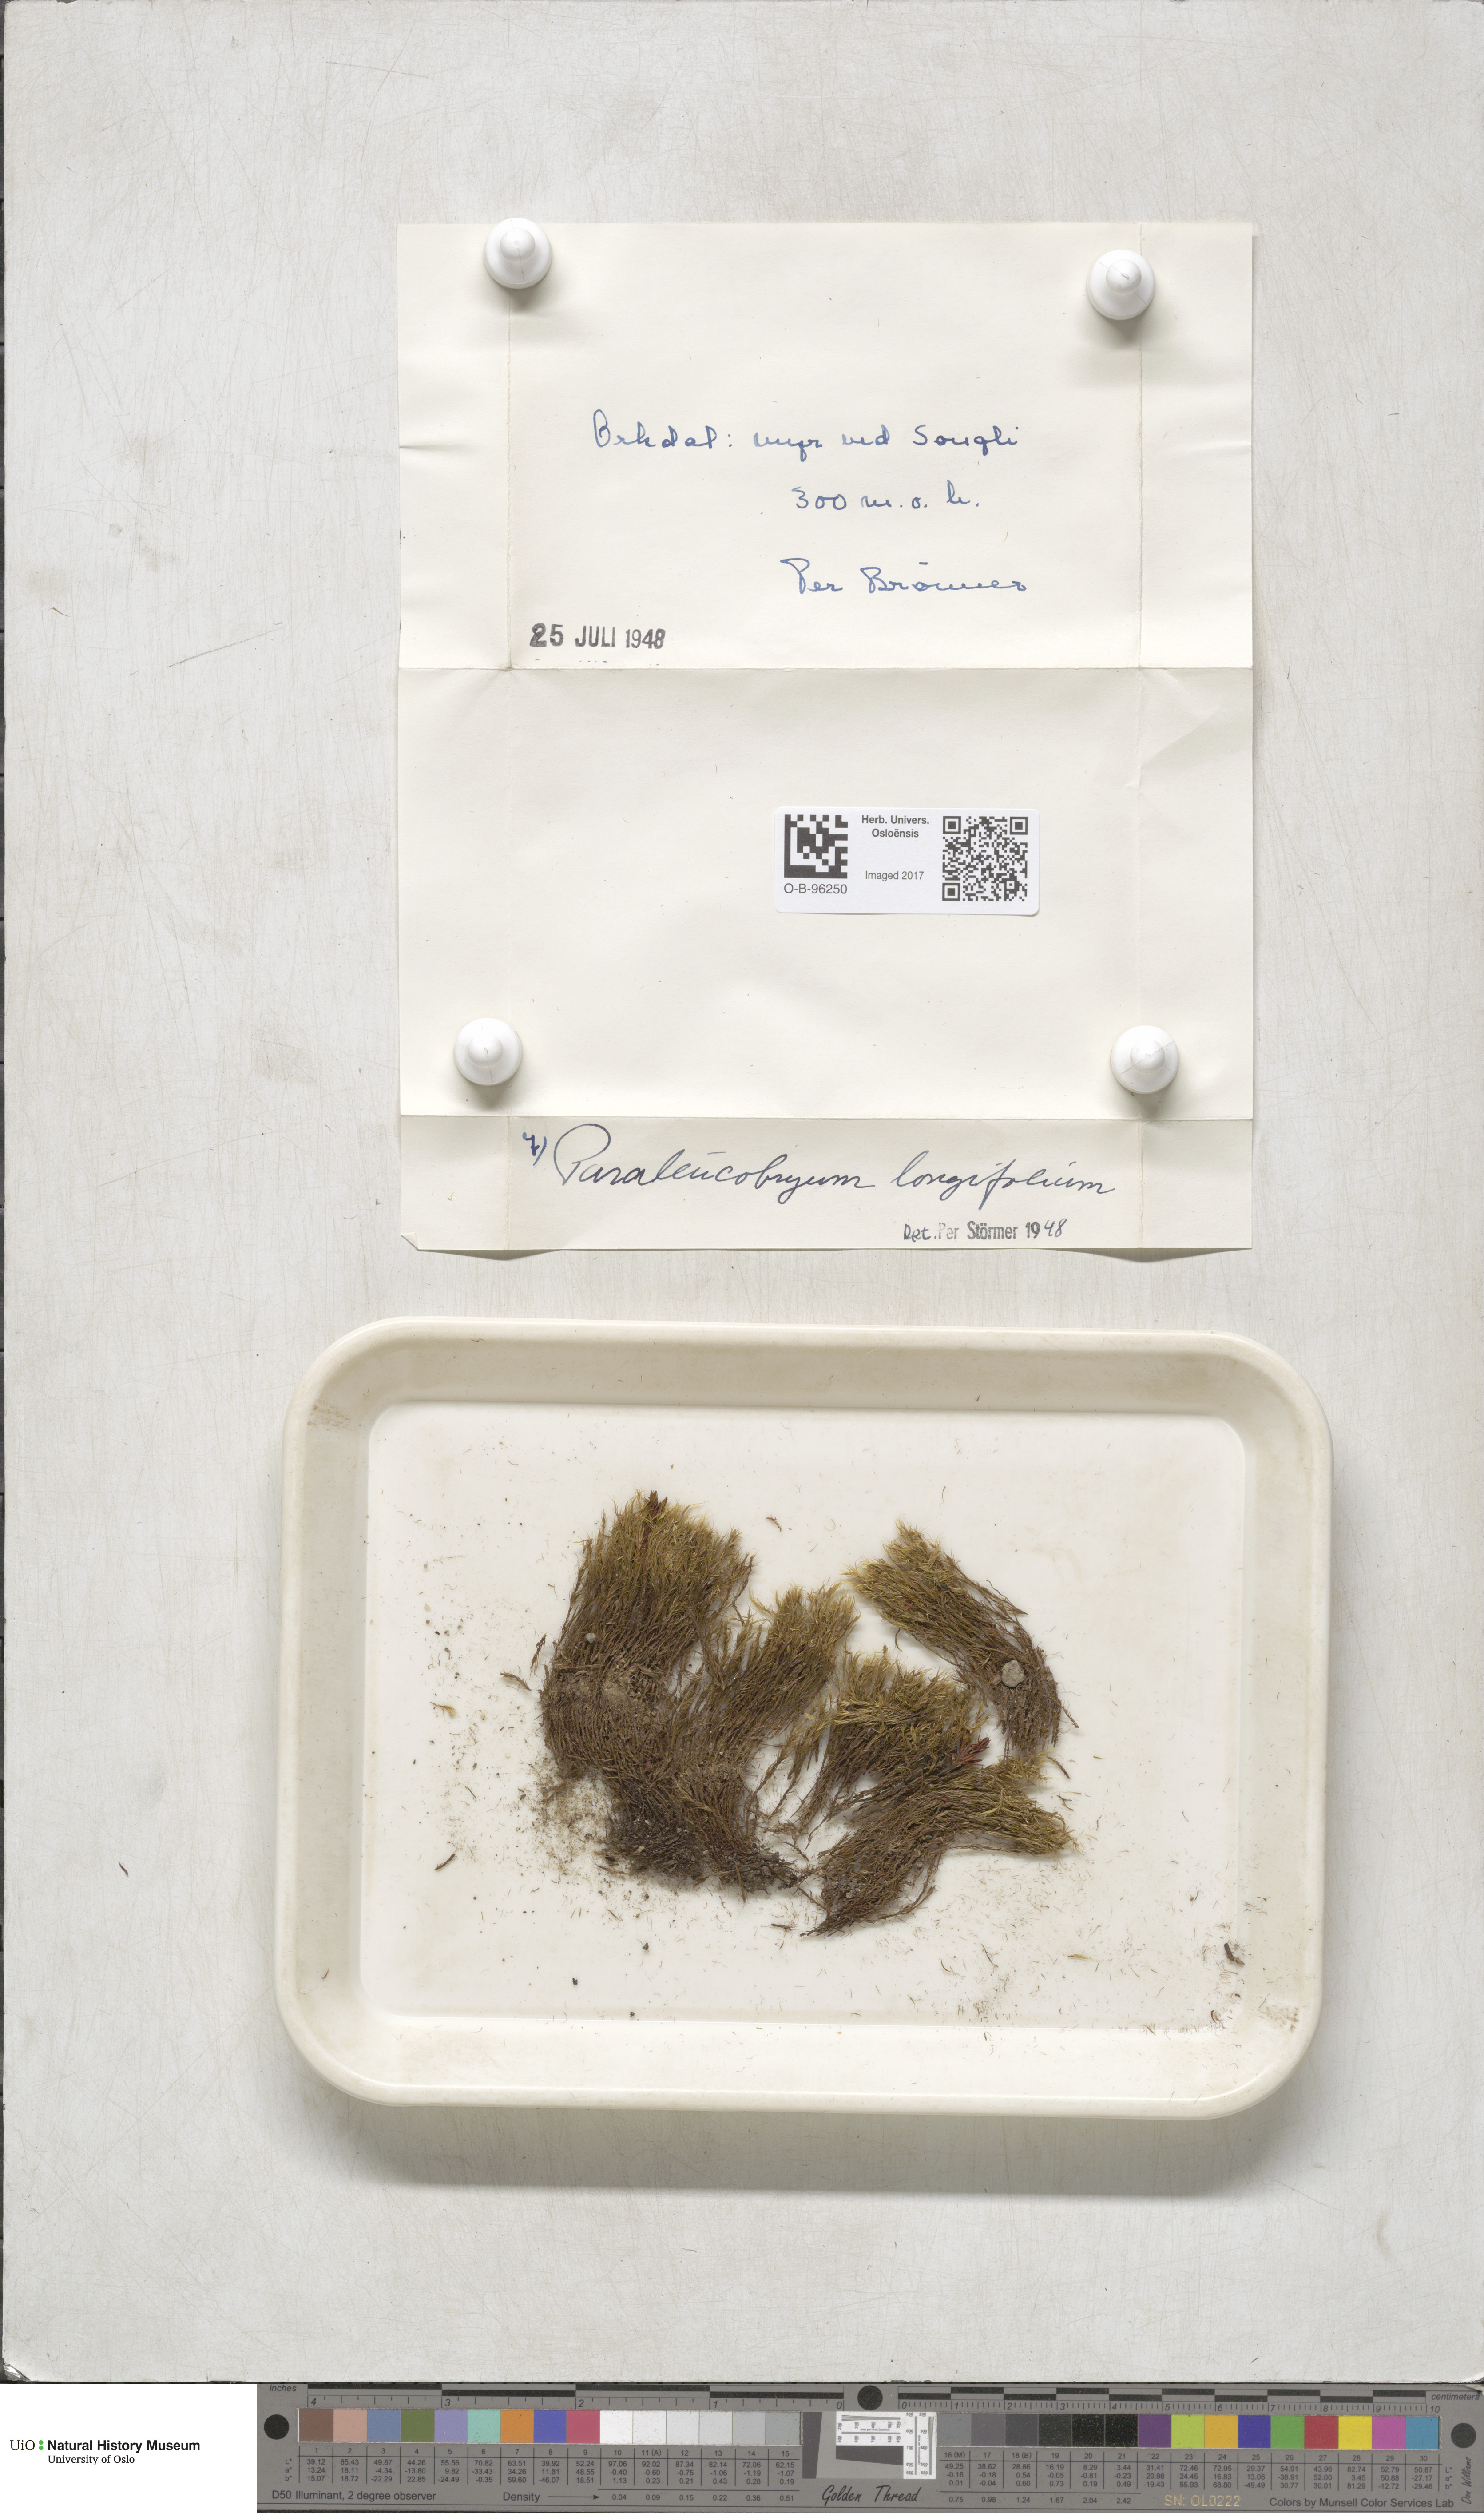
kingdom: Plantae
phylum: Bryophyta
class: Bryopsida
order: Dicranales
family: Dicranaceae
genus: Paraleucobryum
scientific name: Paraleucobryum longifolium
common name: Long-leaved fork moss
